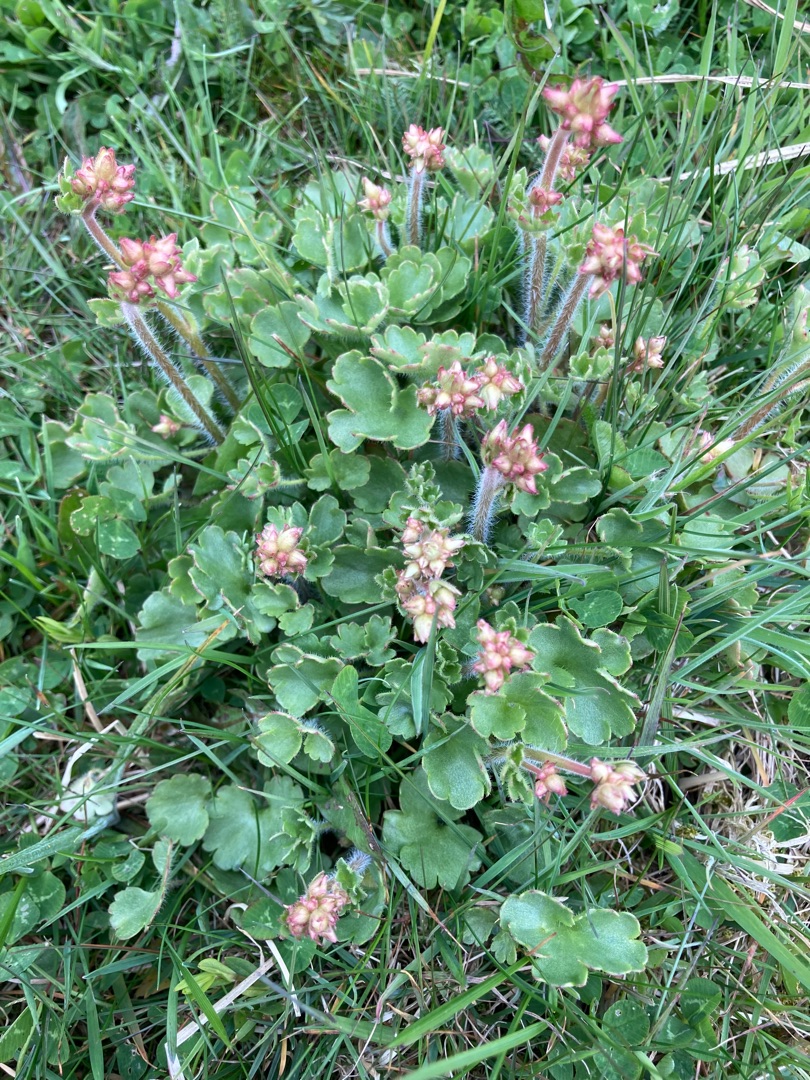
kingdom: Plantae
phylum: Tracheophyta
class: Magnoliopsida
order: Saxifragales
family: Saxifragaceae
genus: Saxifraga
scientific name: Saxifraga granulata
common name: Kornet stenbræk
